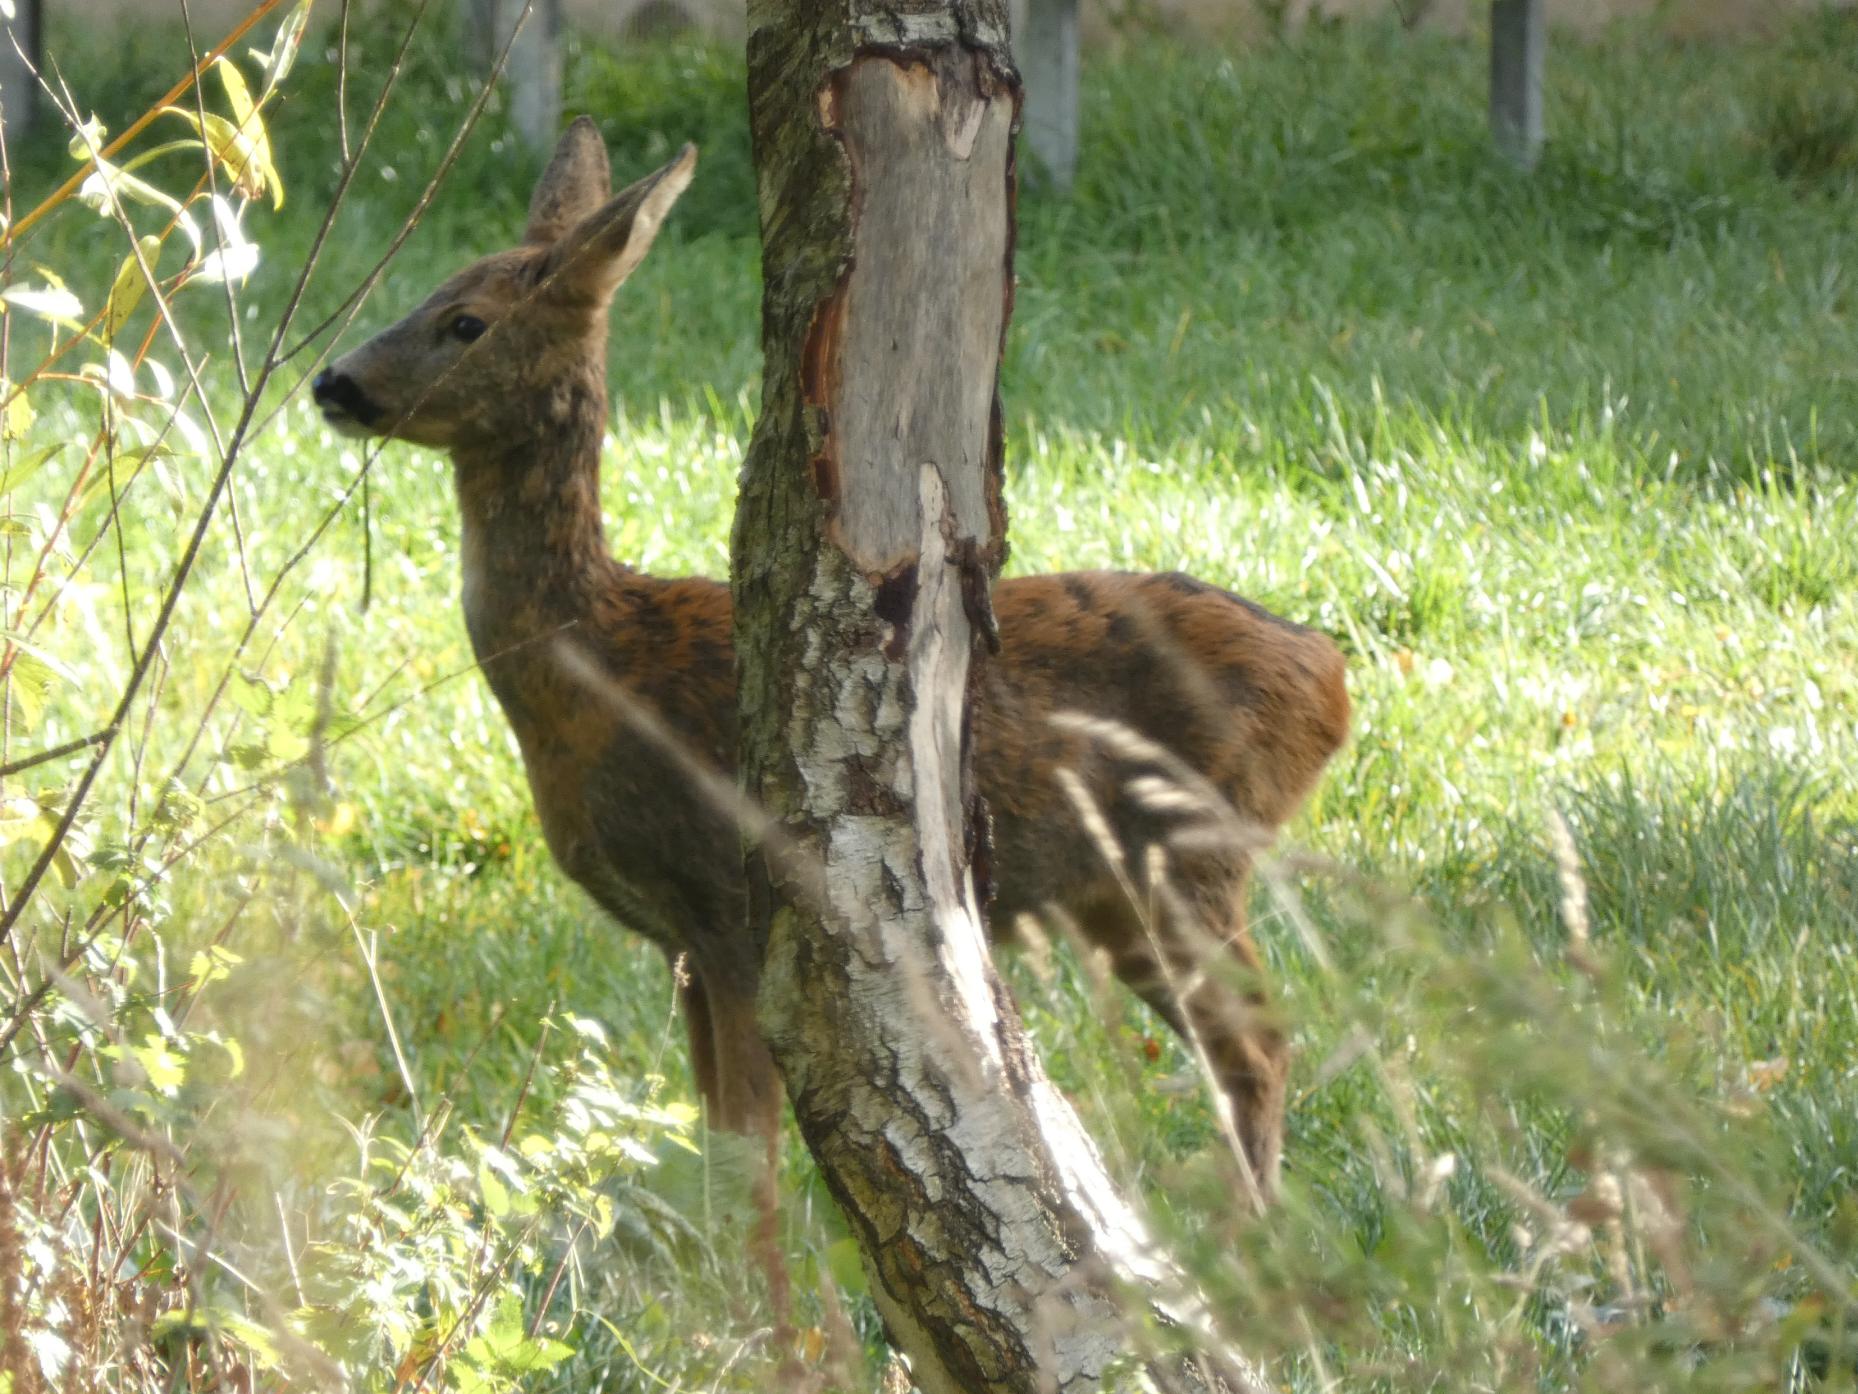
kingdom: Animalia
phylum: Chordata
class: Mammalia
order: Artiodactyla
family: Cervidae
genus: Capreolus
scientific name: Capreolus capreolus
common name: Rådyr
